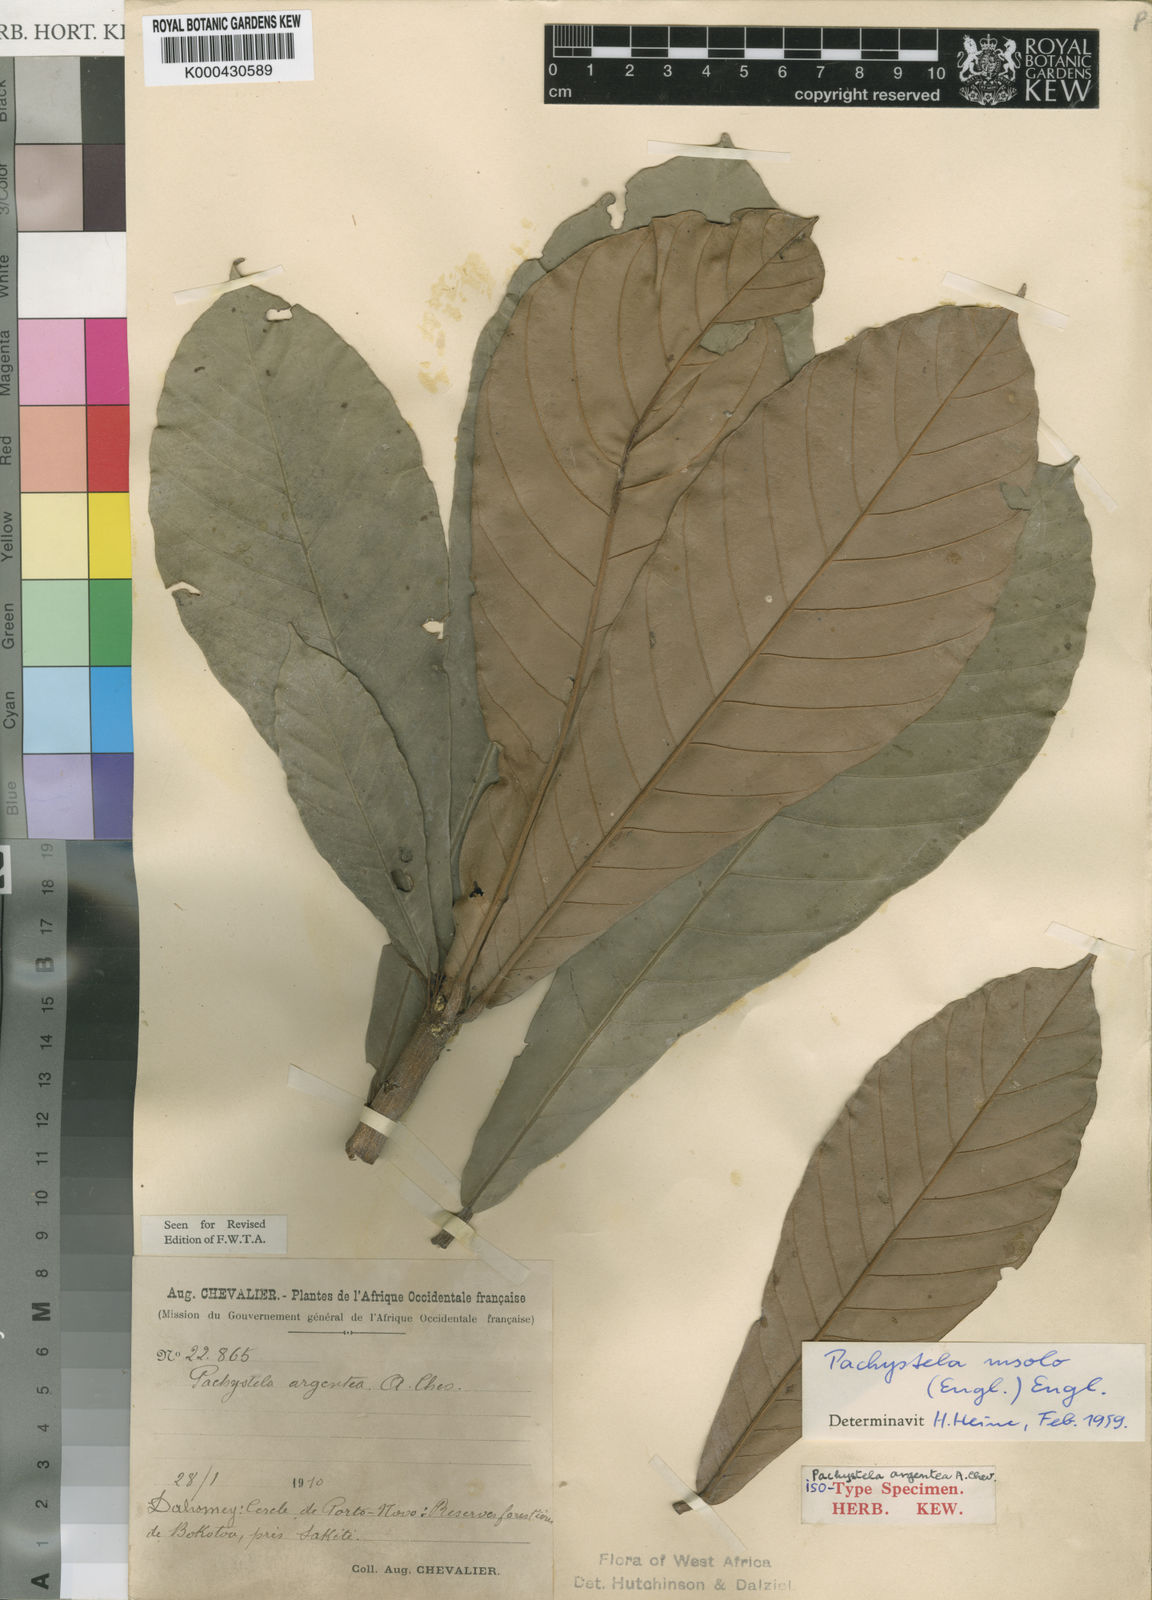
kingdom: Plantae
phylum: Tracheophyta
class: Magnoliopsida
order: Ericales
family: Sapotaceae
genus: Synsepalum
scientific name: Synsepalum msolo
